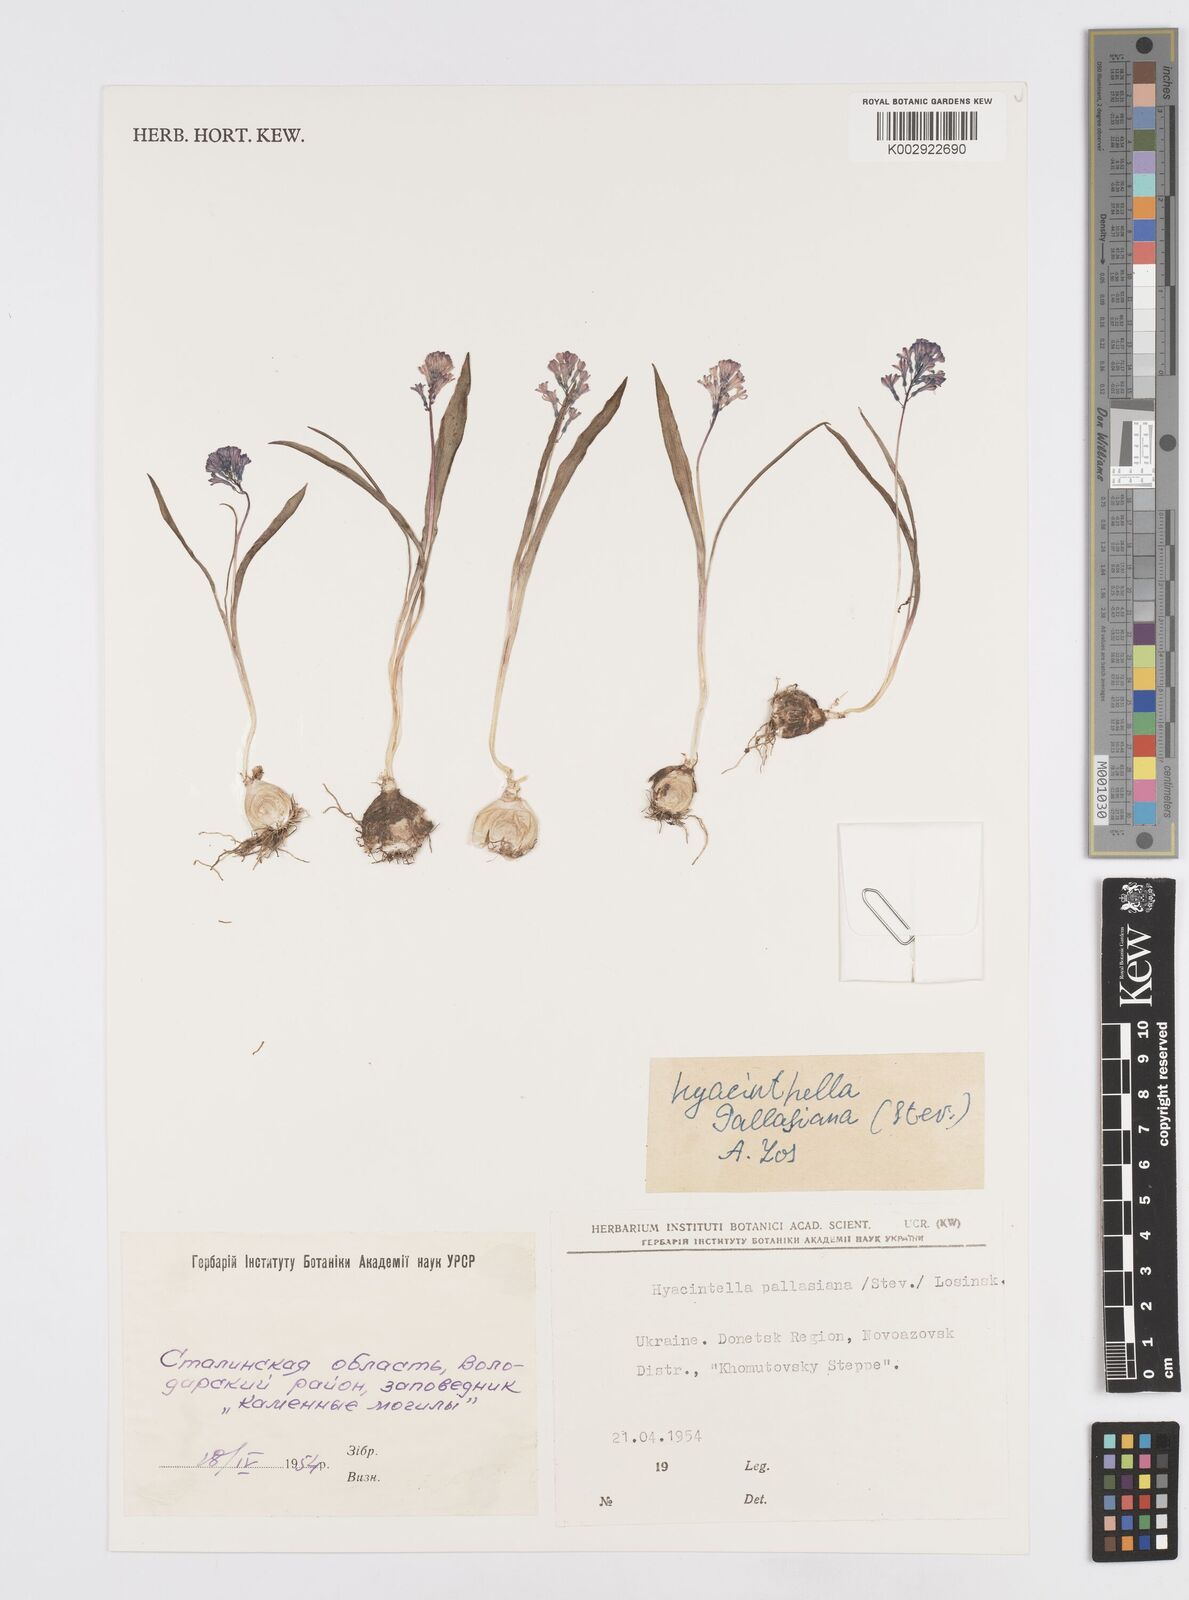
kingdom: Plantae
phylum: Tracheophyta
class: Liliopsida
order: Asparagales
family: Asparagaceae
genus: Hyacinthella
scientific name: Hyacinthella pallasiana
